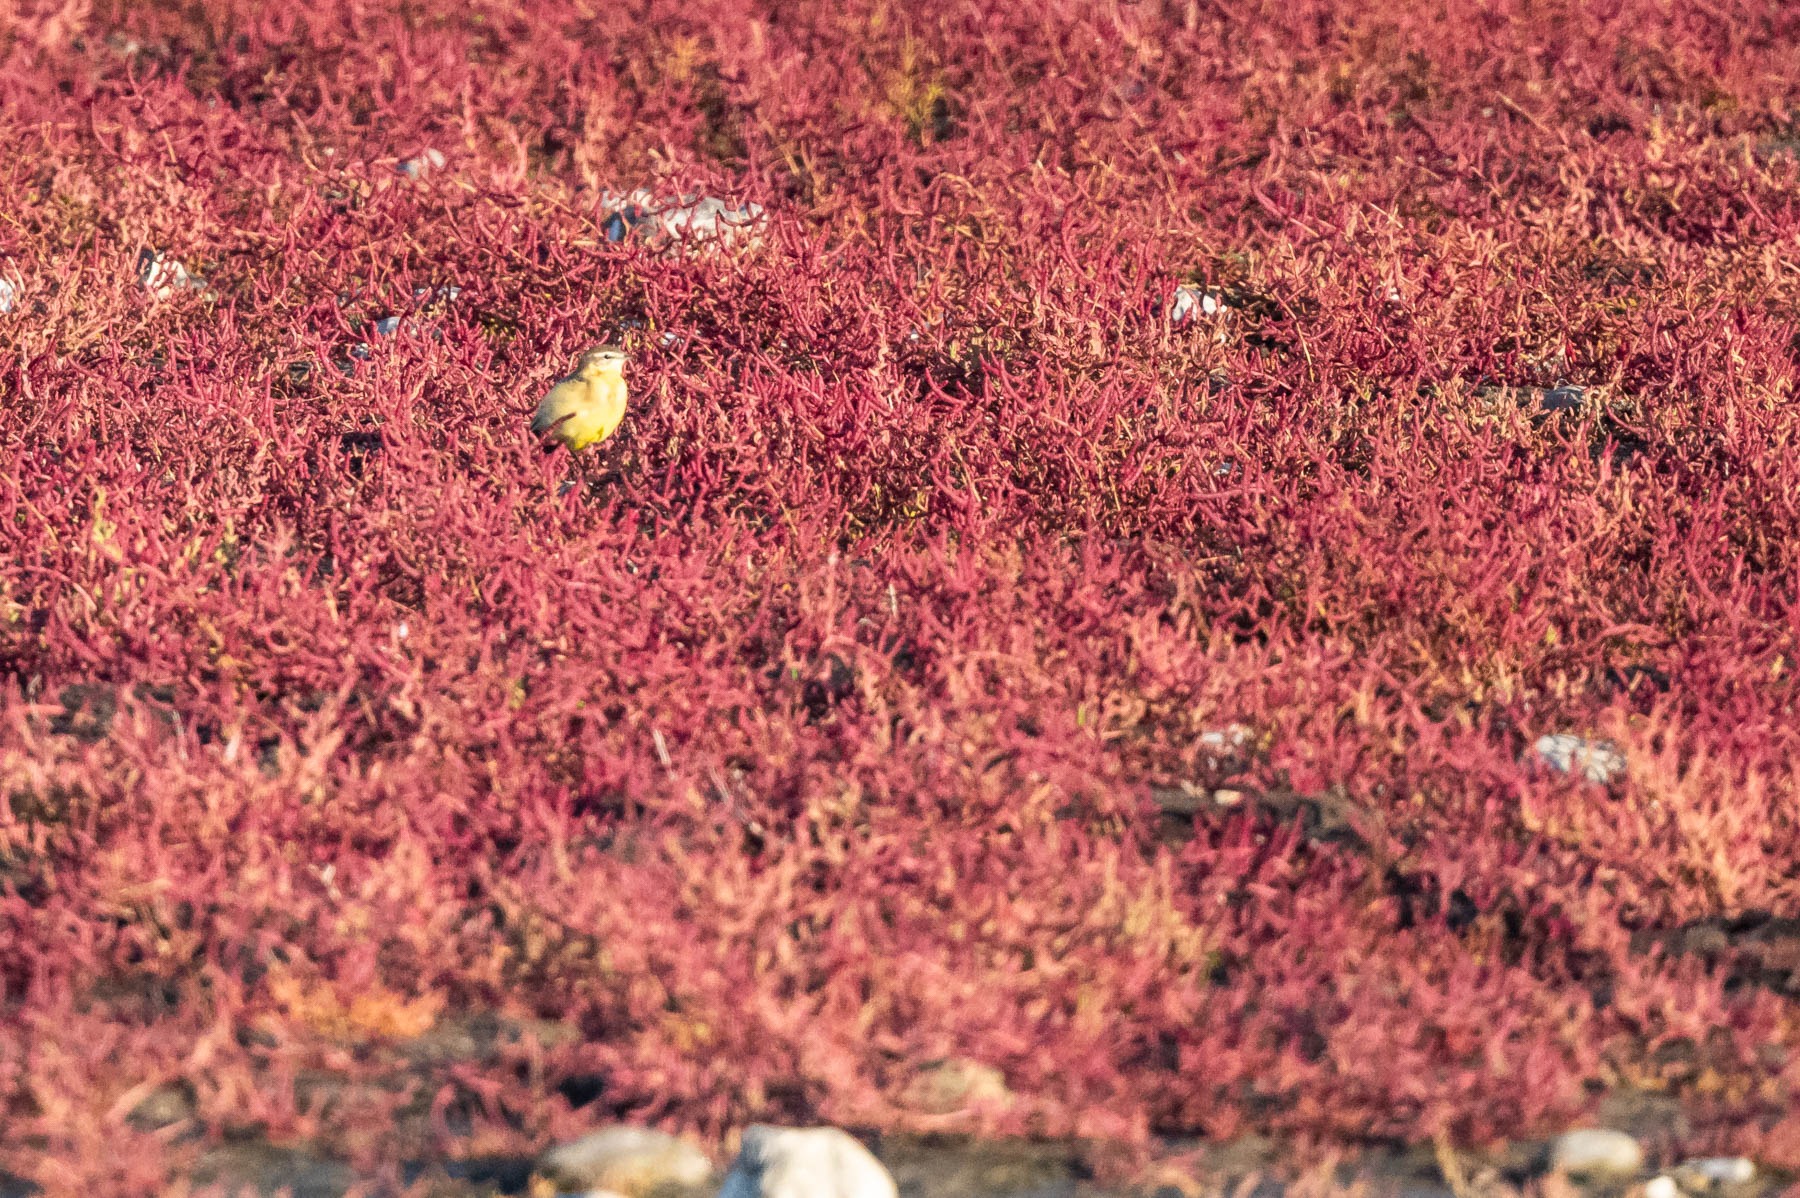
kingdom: Animalia
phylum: Chordata
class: Aves
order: Passeriformes
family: Motacillidae
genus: Motacilla
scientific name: Motacilla flava
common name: Gul vipstjert
